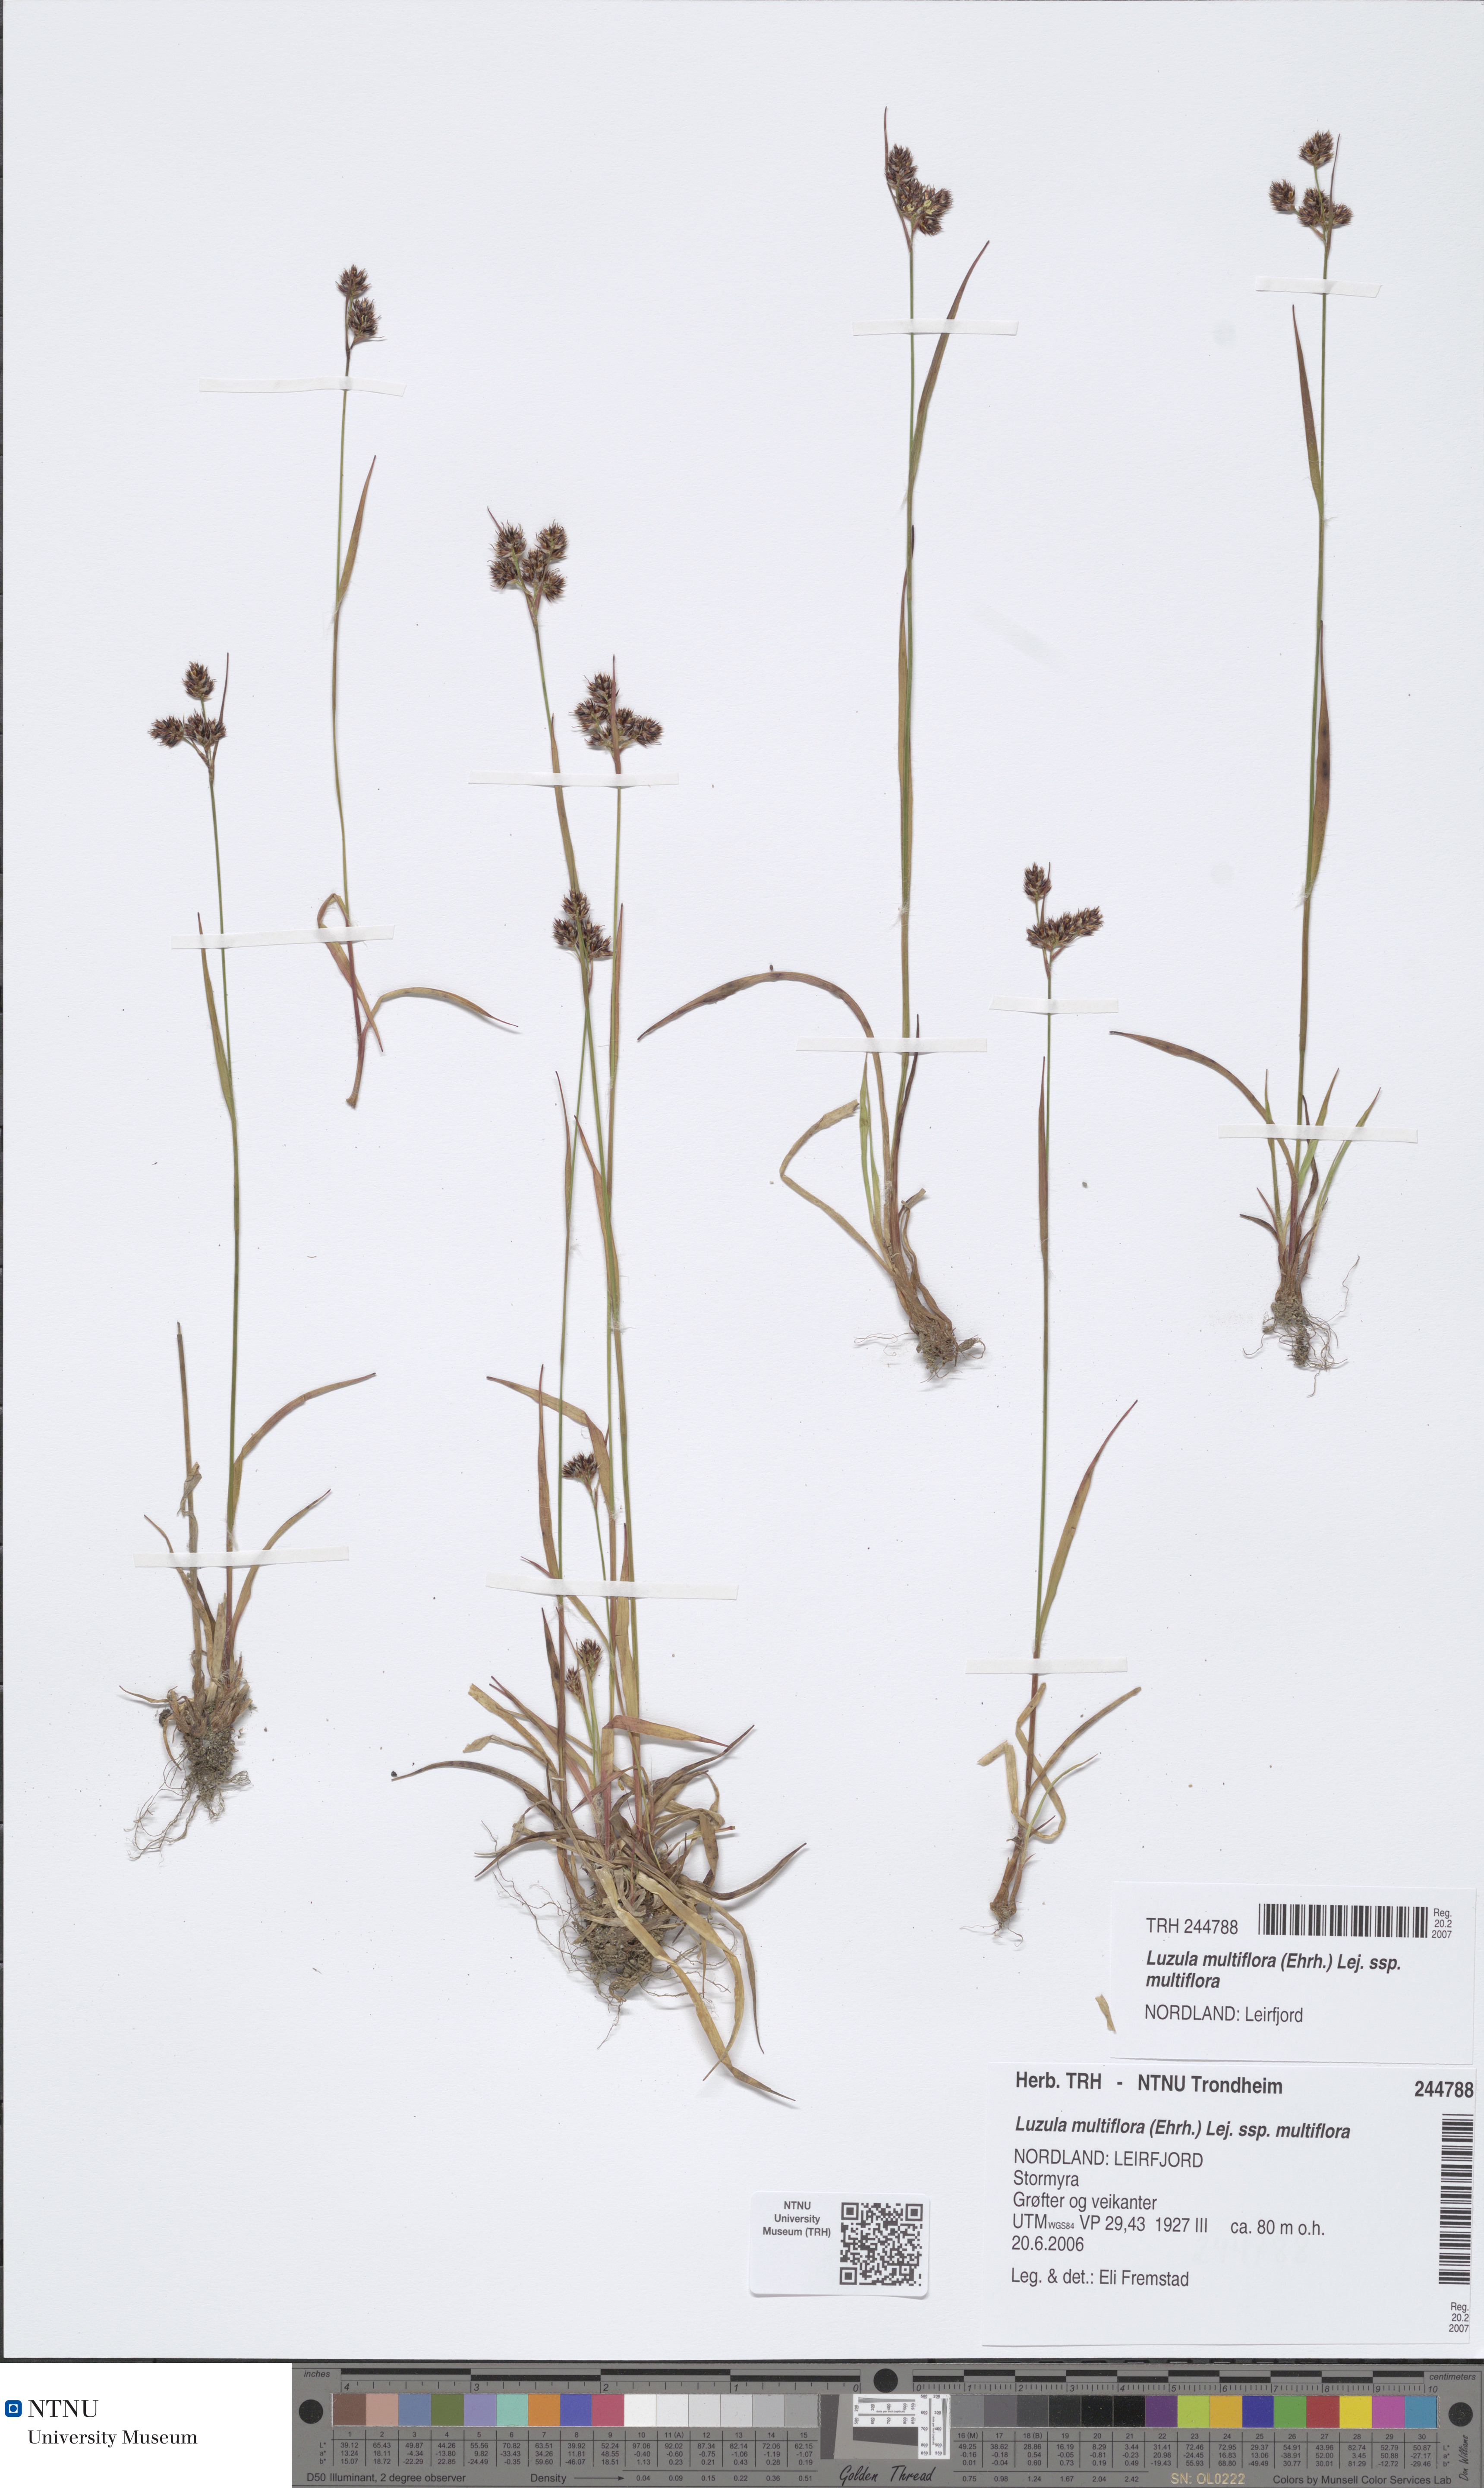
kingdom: Plantae
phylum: Tracheophyta
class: Liliopsida
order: Poales
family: Juncaceae
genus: Luzula
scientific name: Luzula multiflora
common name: Heath wood-rush
